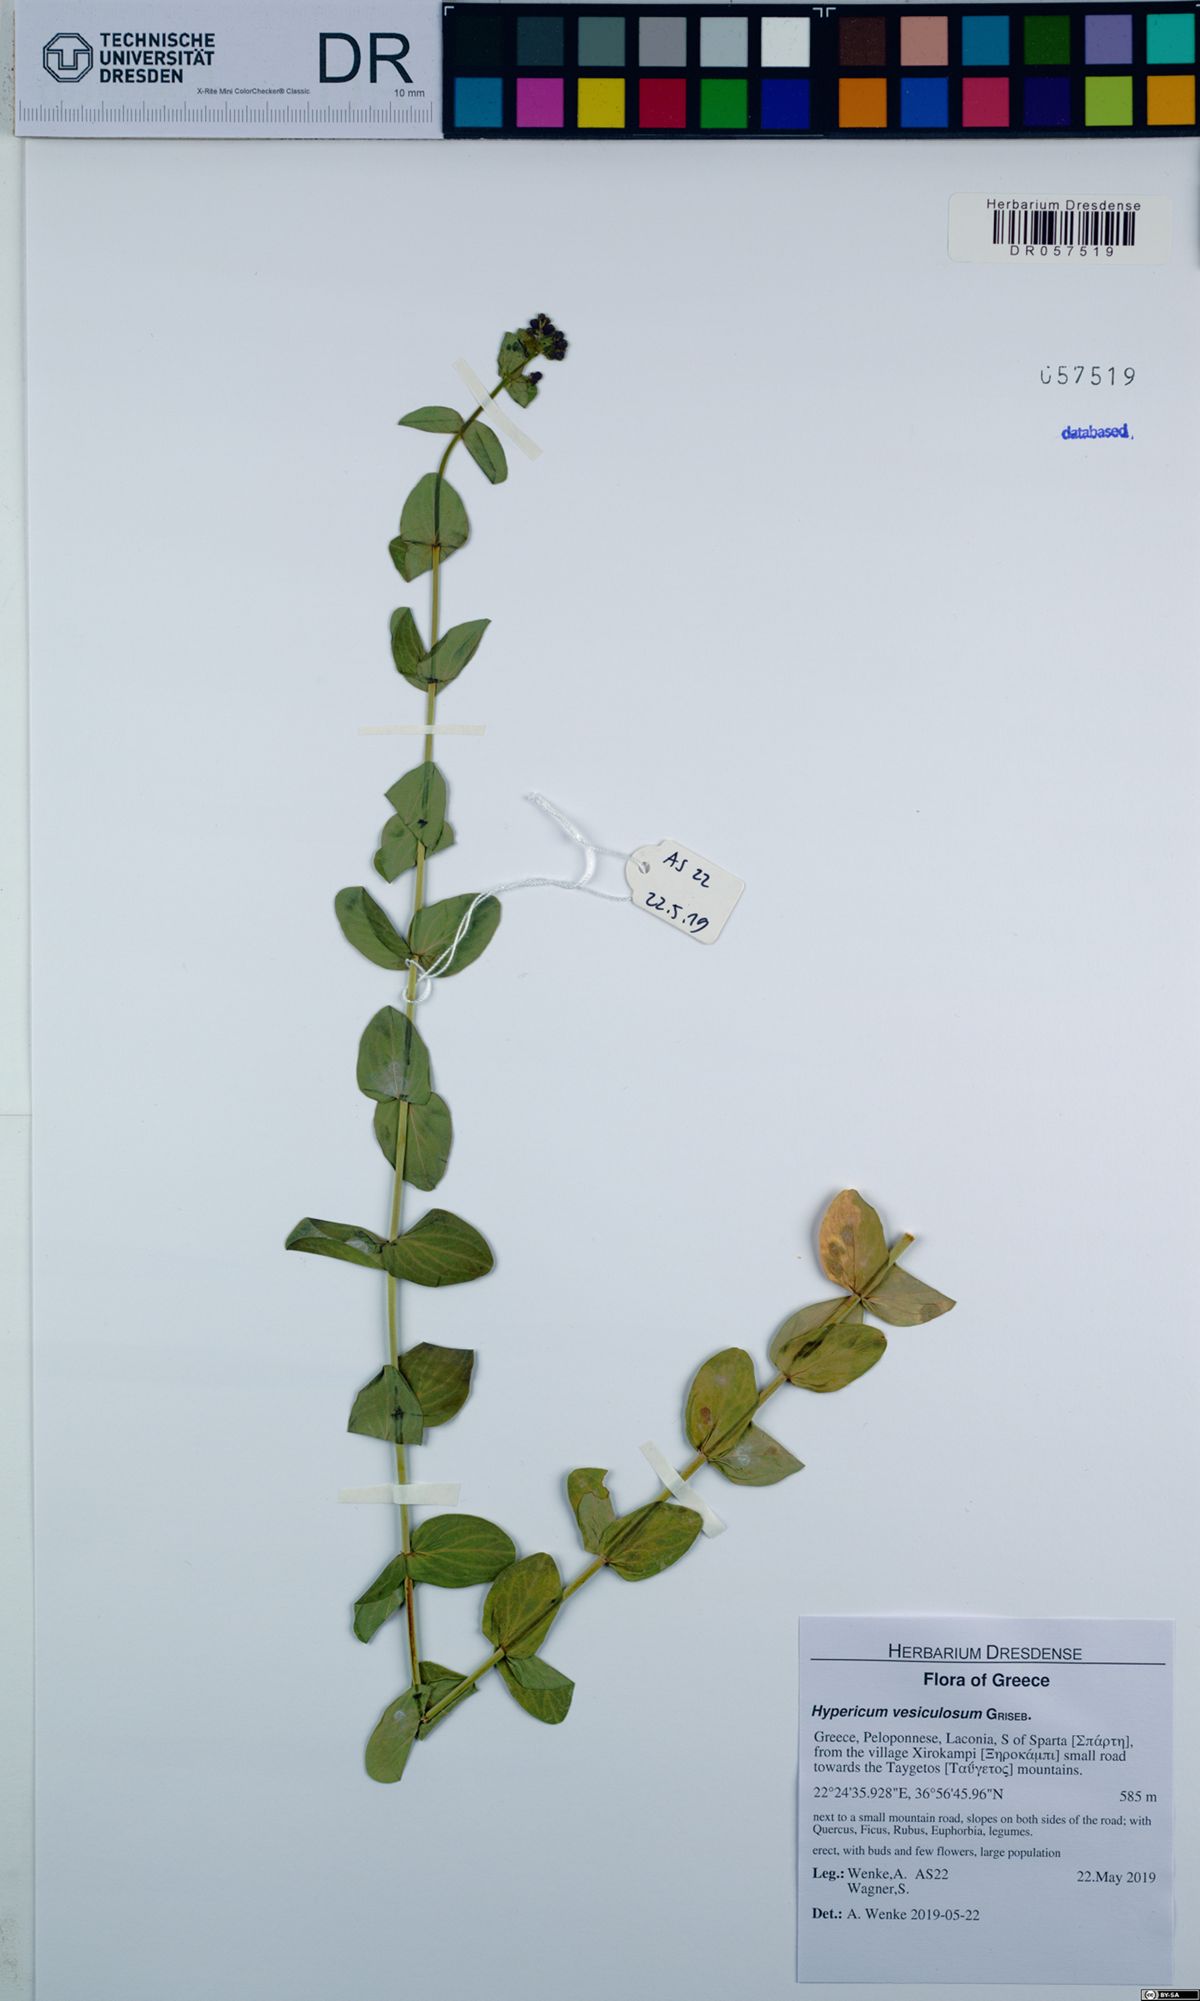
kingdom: Plantae
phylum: Tracheophyta
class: Magnoliopsida
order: Malpighiales
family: Hypericaceae
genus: Hypericum
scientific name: Hypericum vesiculosum
